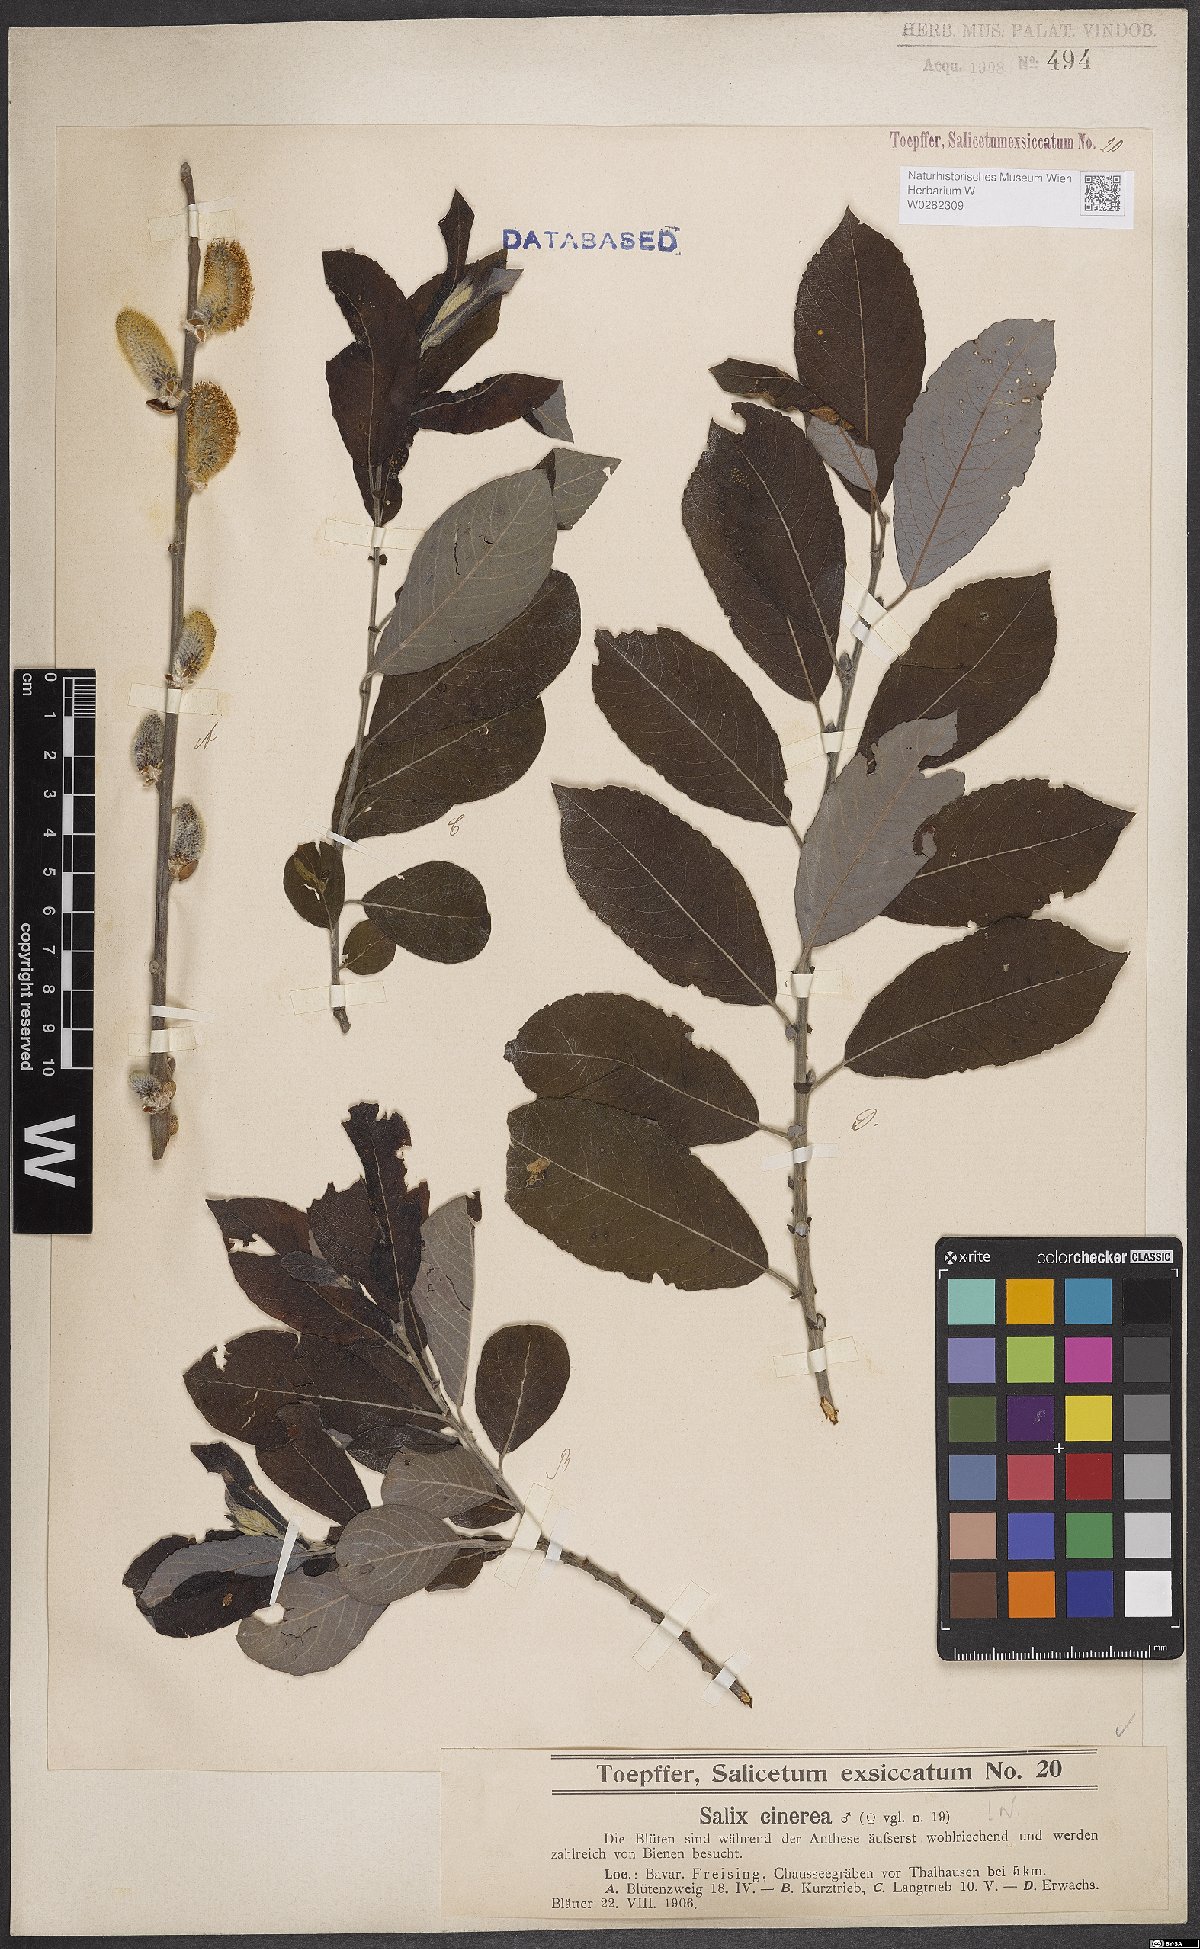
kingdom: Plantae
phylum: Tracheophyta
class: Magnoliopsida
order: Malpighiales
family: Salicaceae
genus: Salix
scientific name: Salix cinerea
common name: Common sallow
